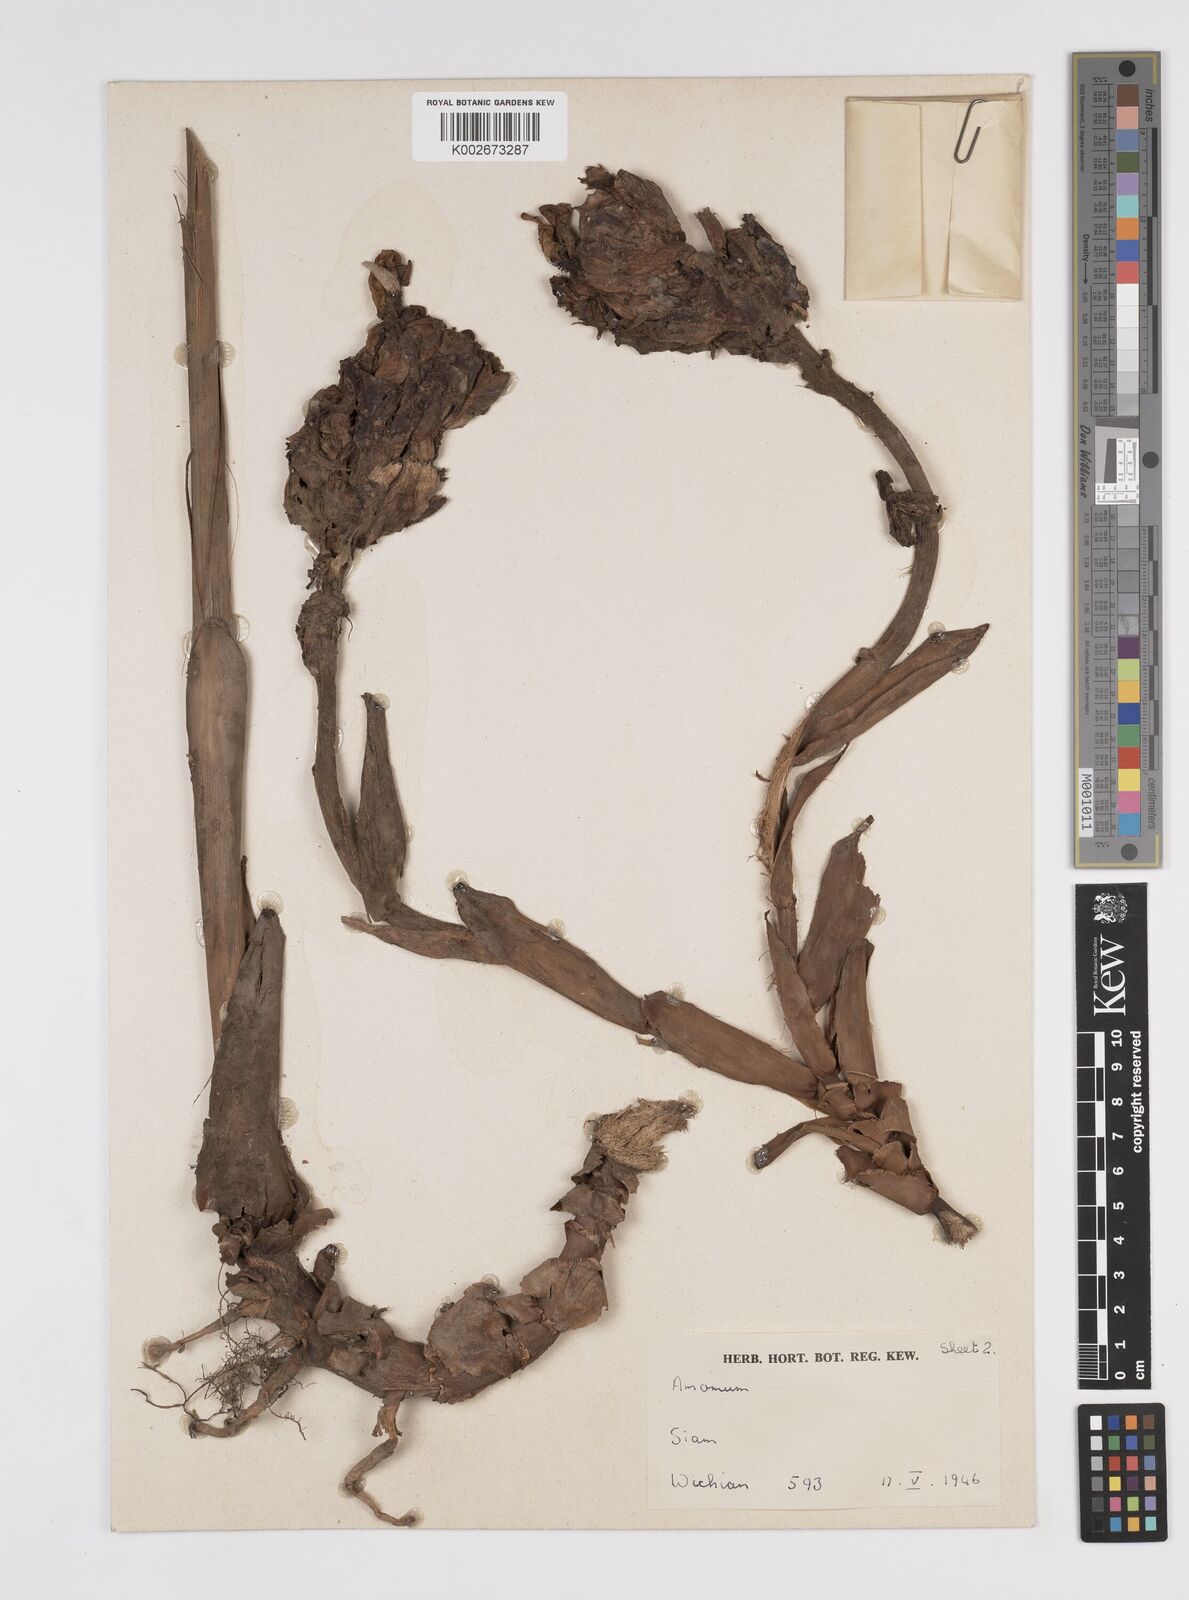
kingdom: Plantae
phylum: Tracheophyta
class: Liliopsida
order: Zingiberales
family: Zingiberaceae
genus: Amomum
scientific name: Amomum
